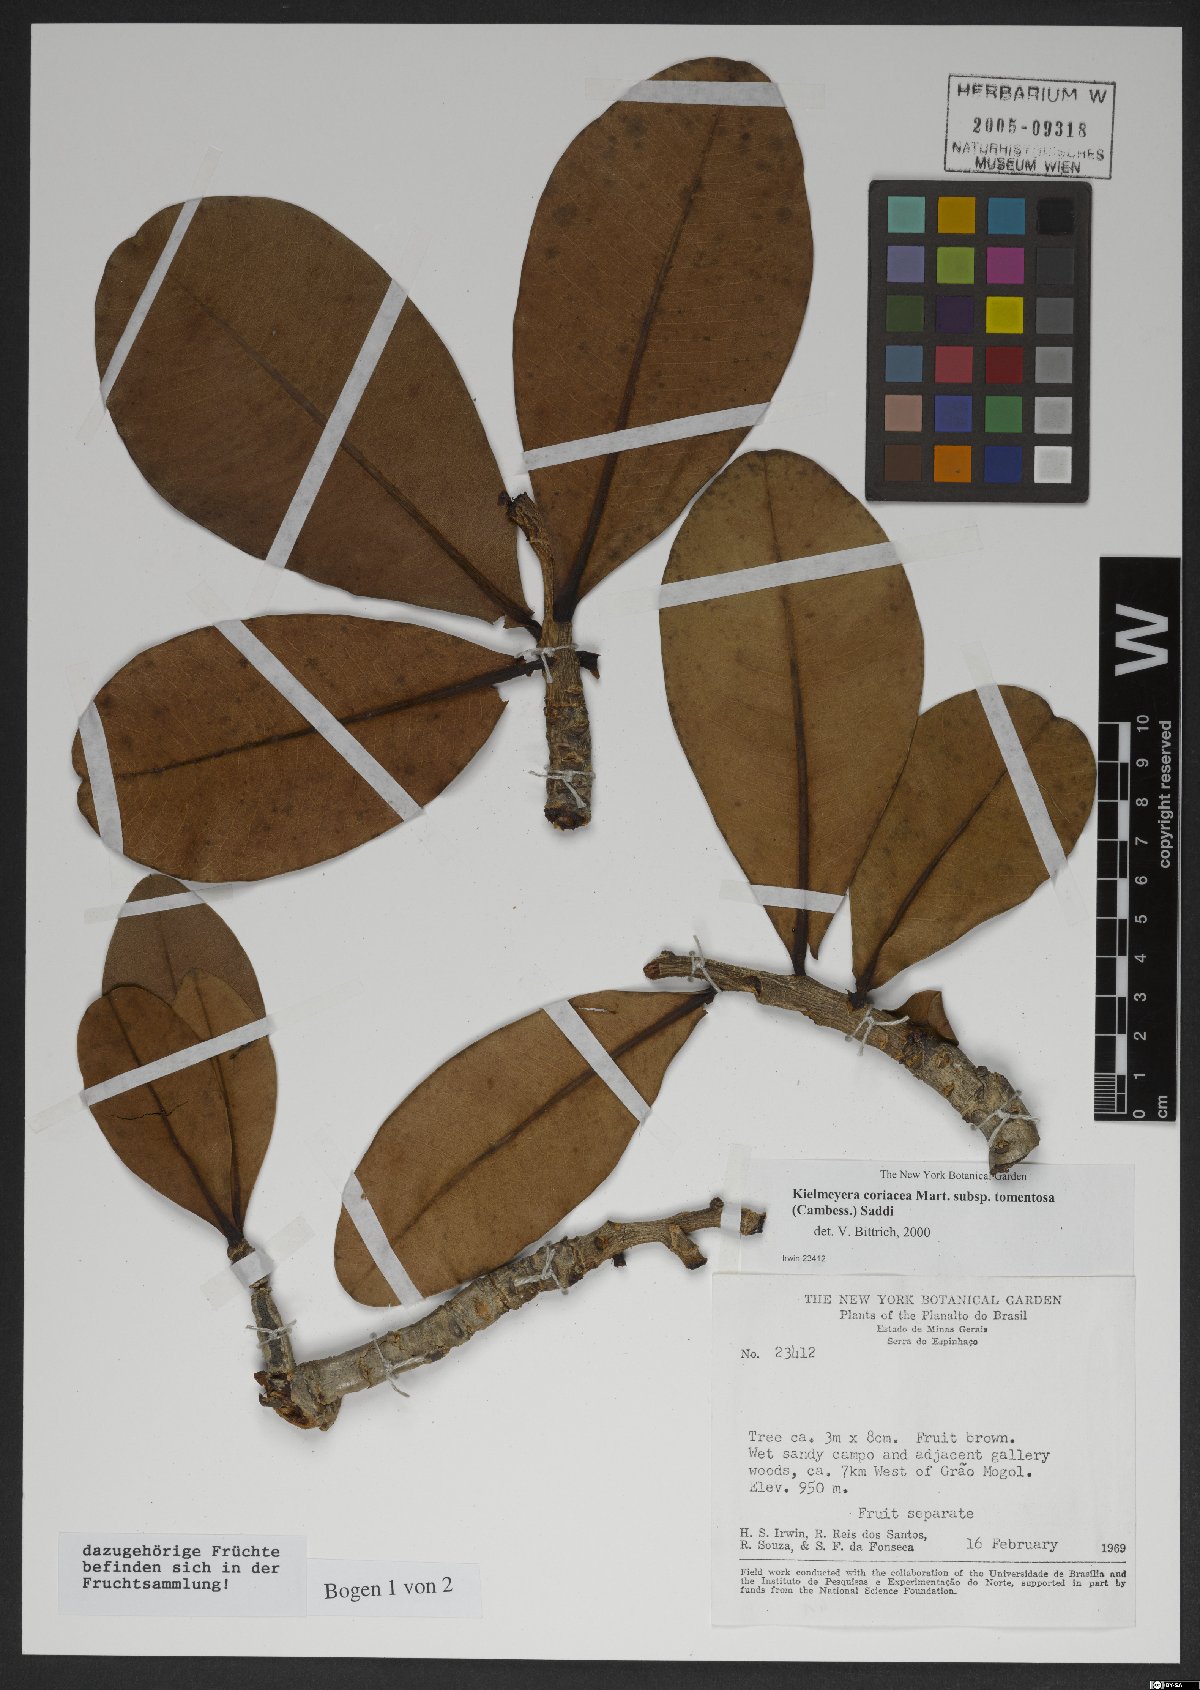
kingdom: Plantae
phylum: Tracheophyta
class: Magnoliopsida
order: Malpighiales
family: Calophyllaceae
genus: Kielmeyera
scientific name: Kielmeyera tomentosa
